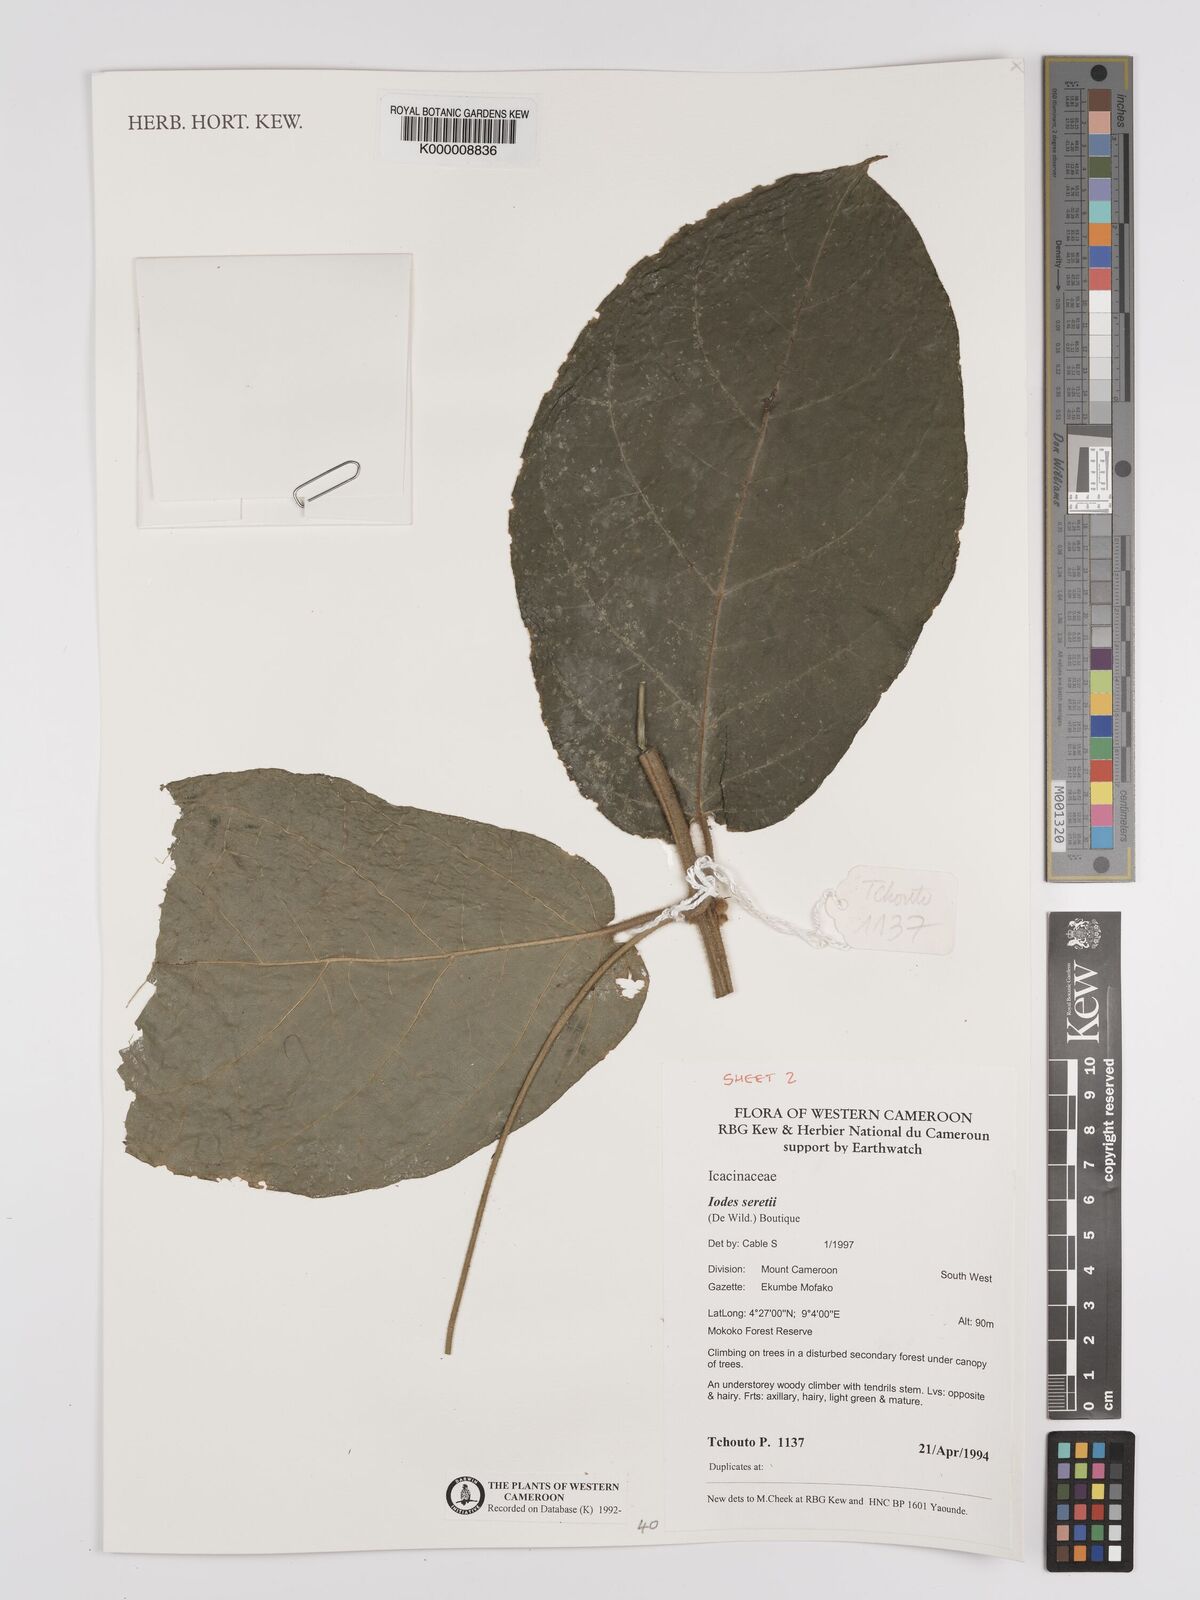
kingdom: Plantae
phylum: Tracheophyta
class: Magnoliopsida
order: Icacinales
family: Icacinaceae
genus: Iodes
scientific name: Iodes seretii
